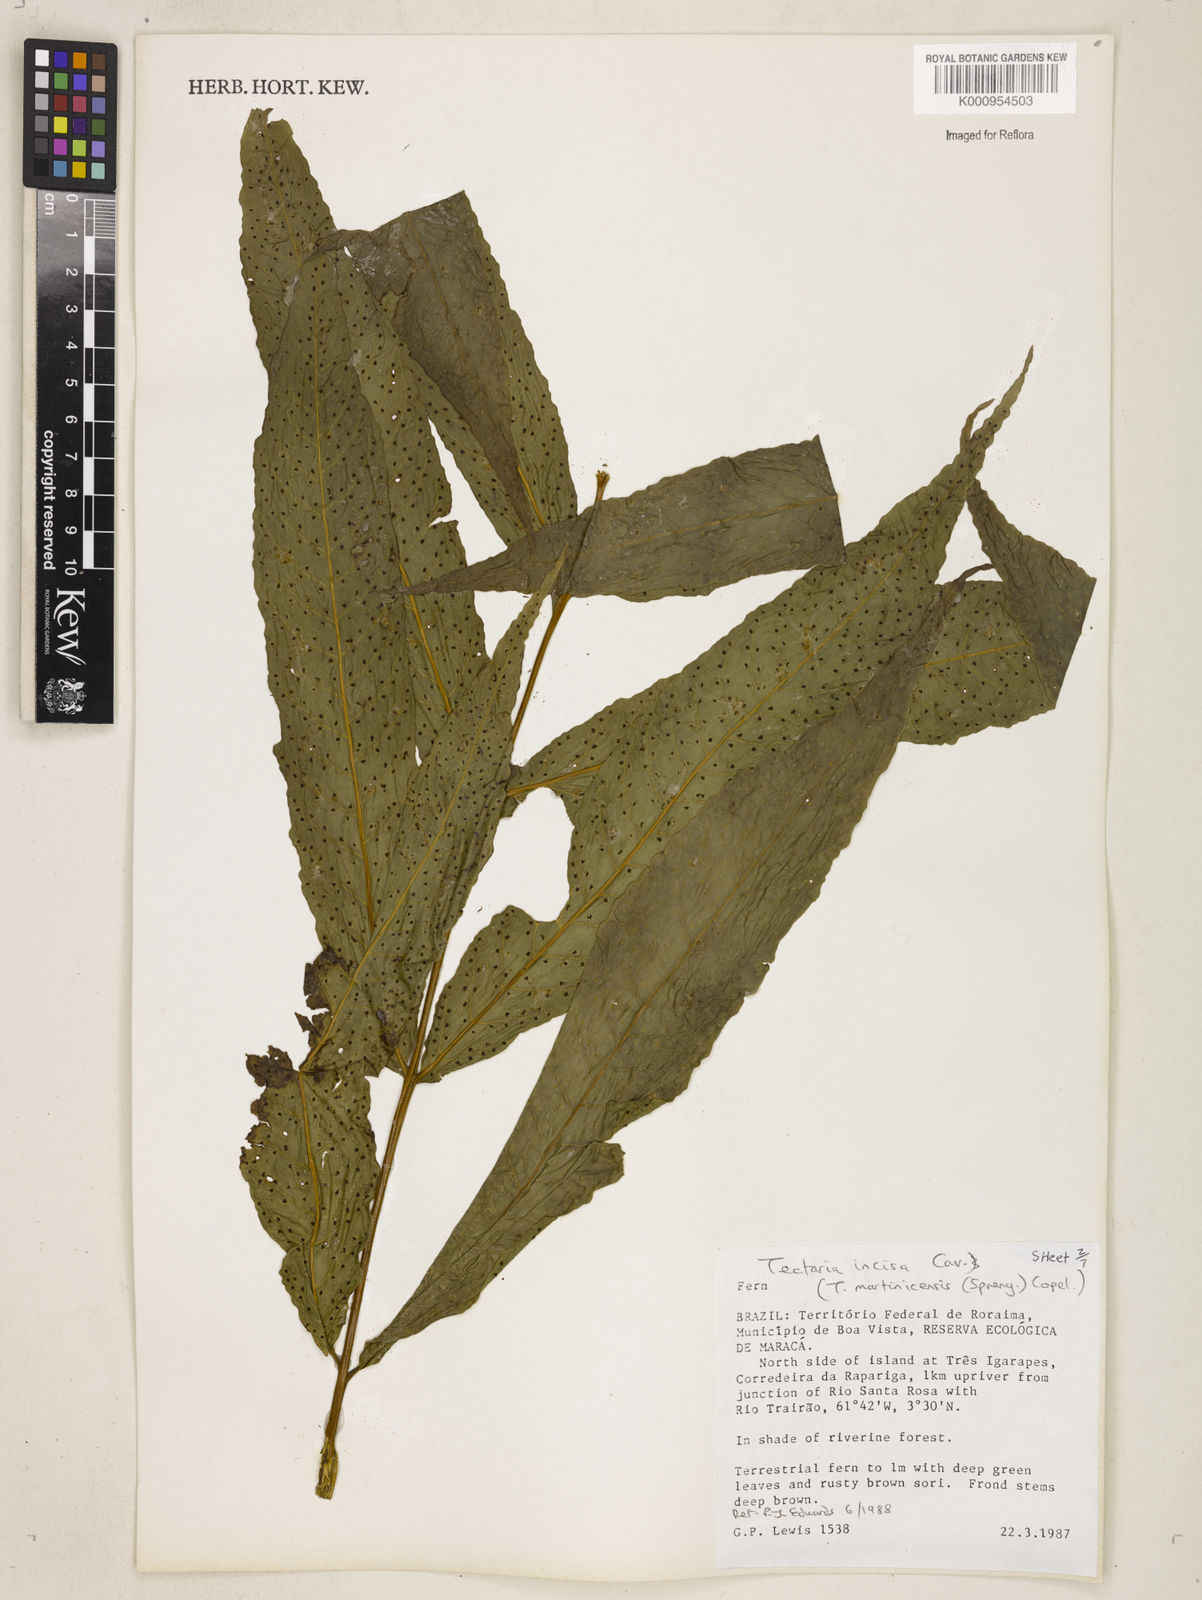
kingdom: Plantae
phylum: Tracheophyta
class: Polypodiopsida
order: Polypodiales
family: Tectariaceae
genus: Tectaria
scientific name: Tectaria incisa
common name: Incised halberd fern
